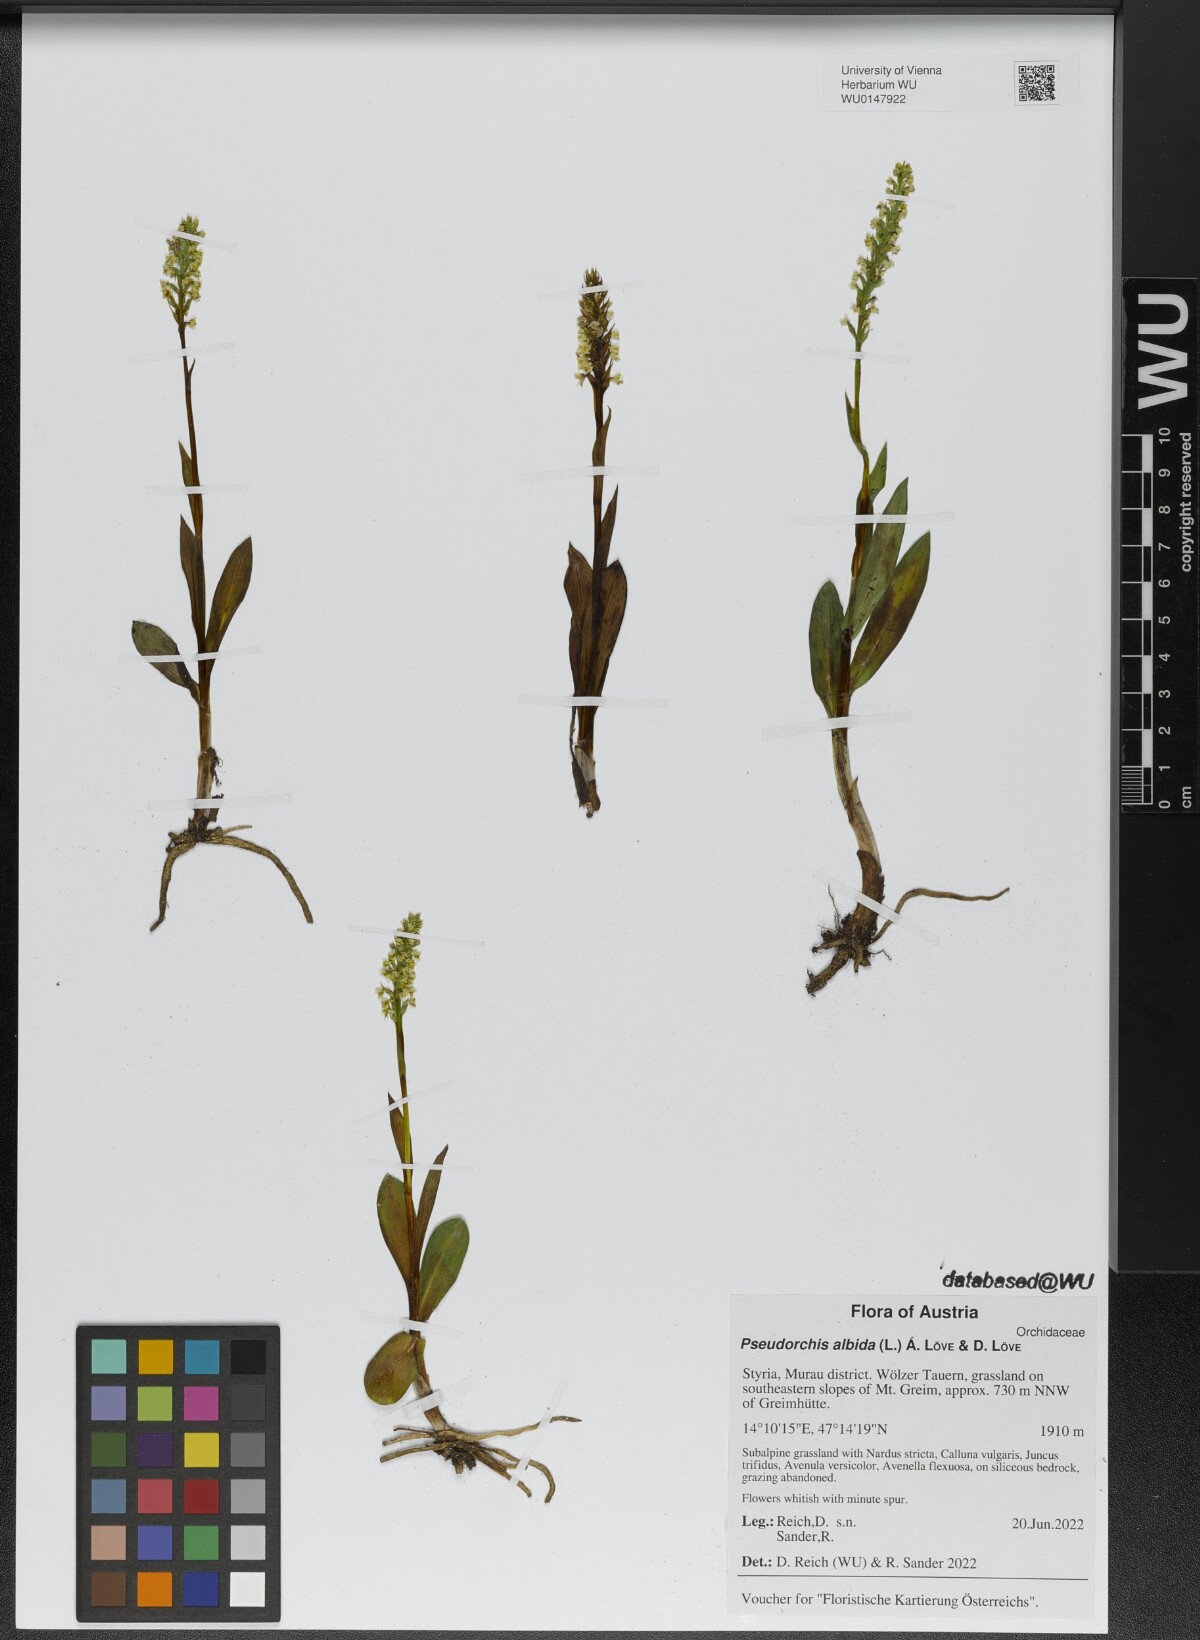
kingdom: Plantae
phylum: Tracheophyta
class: Liliopsida
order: Asparagales
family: Orchidaceae
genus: Pseudorchis
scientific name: Pseudorchis albida
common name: Small-white orchid
